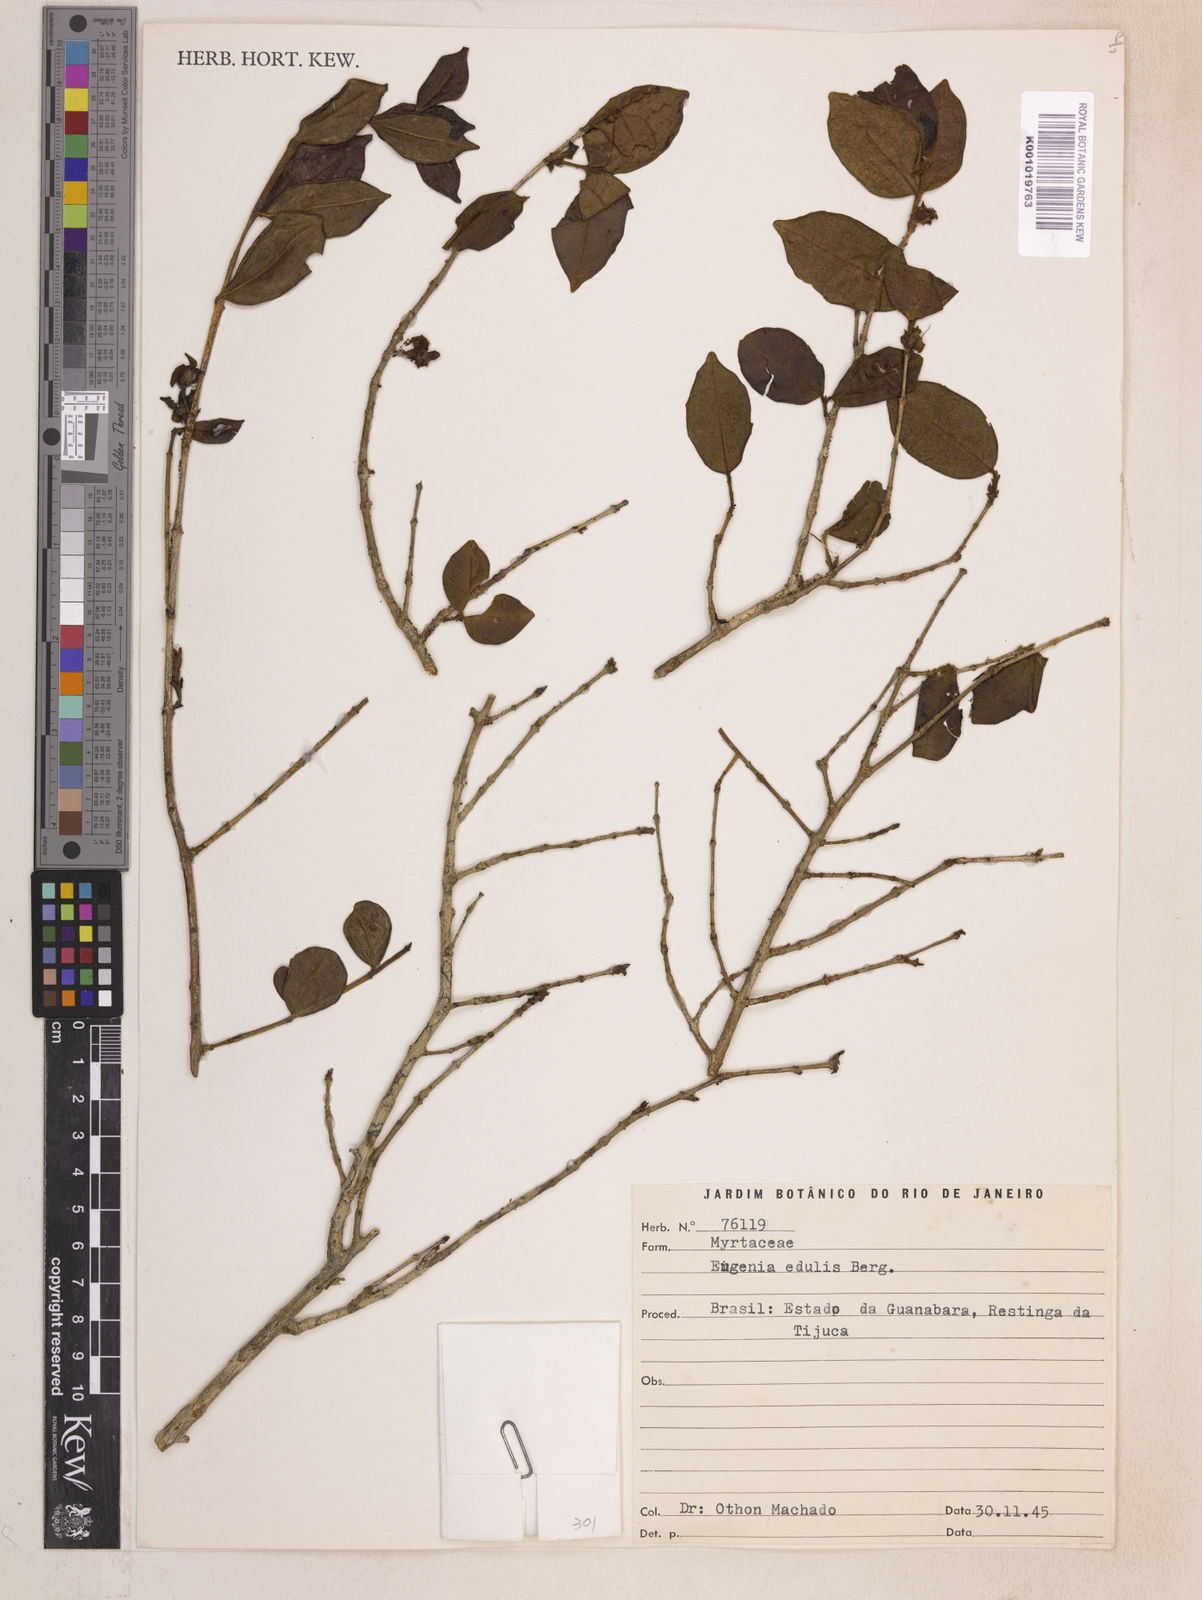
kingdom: Plantae
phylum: Tracheophyta
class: Magnoliopsida
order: Myrtales
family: Myrtaceae
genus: Eugenia
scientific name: Eugenia selloi
